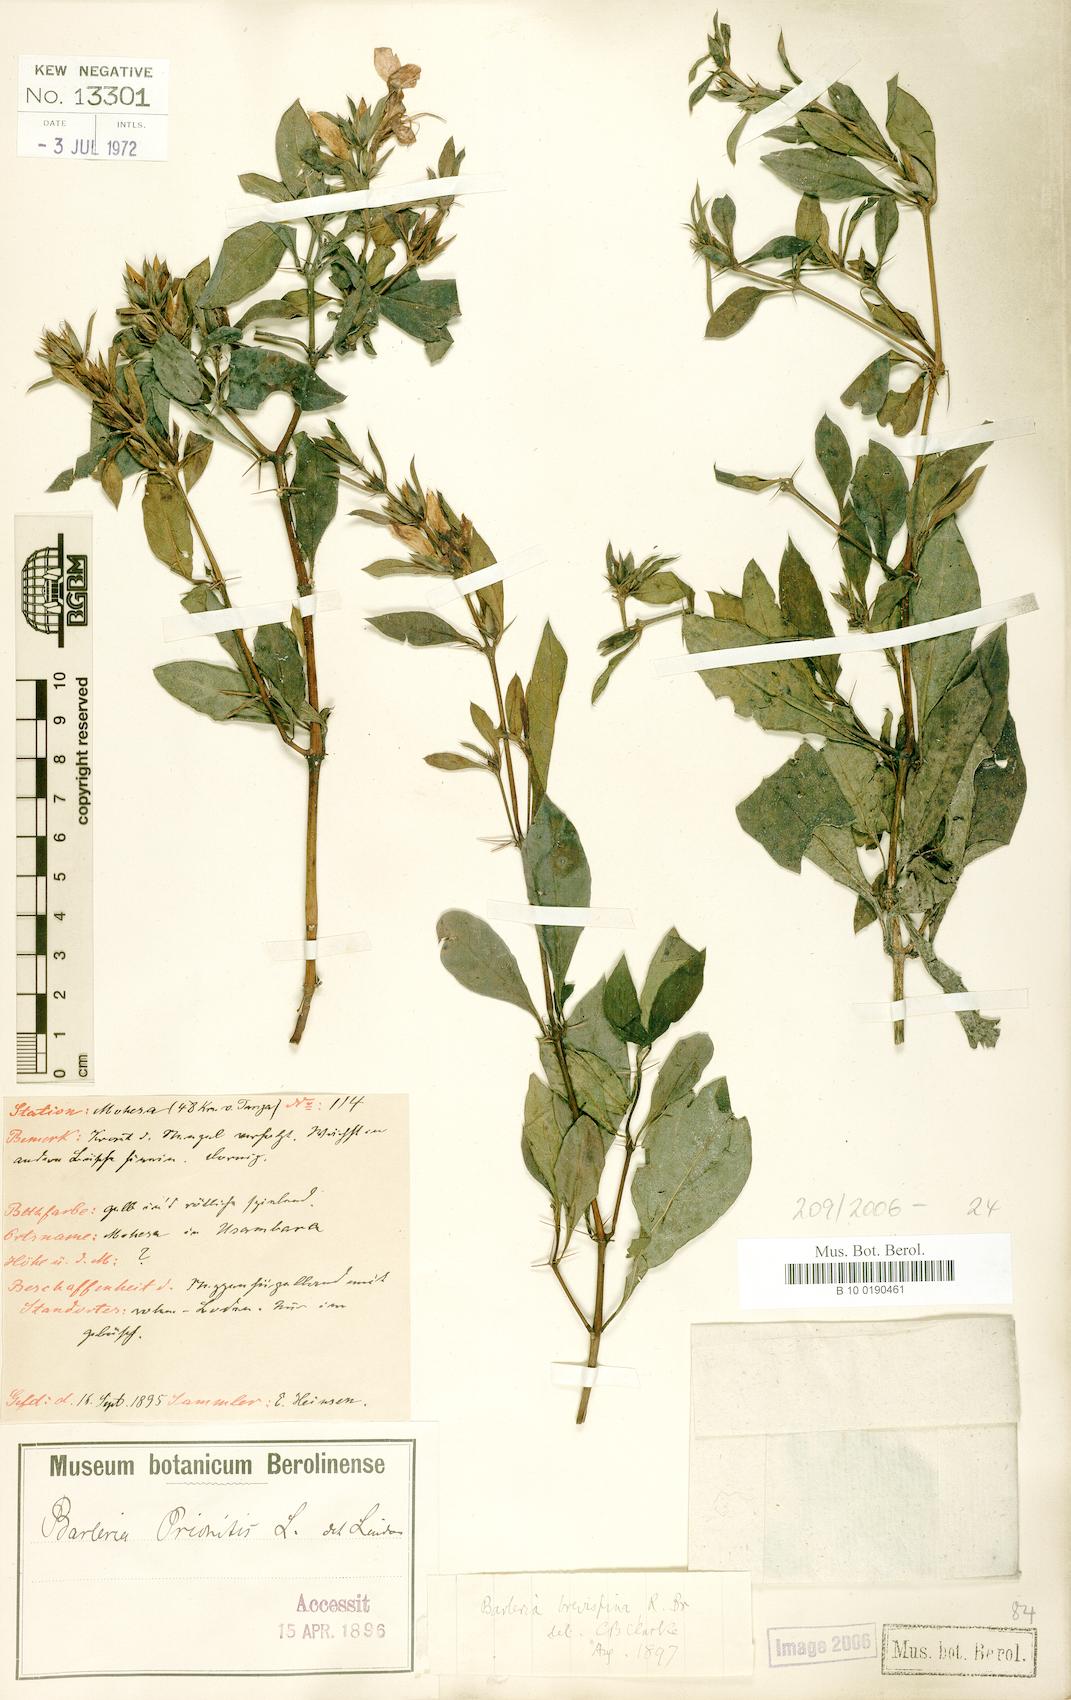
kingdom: Plantae
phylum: Tracheophyta
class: Magnoliopsida
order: Lamiales
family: Acanthaceae
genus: Barleria
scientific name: Barleria quadrispina
